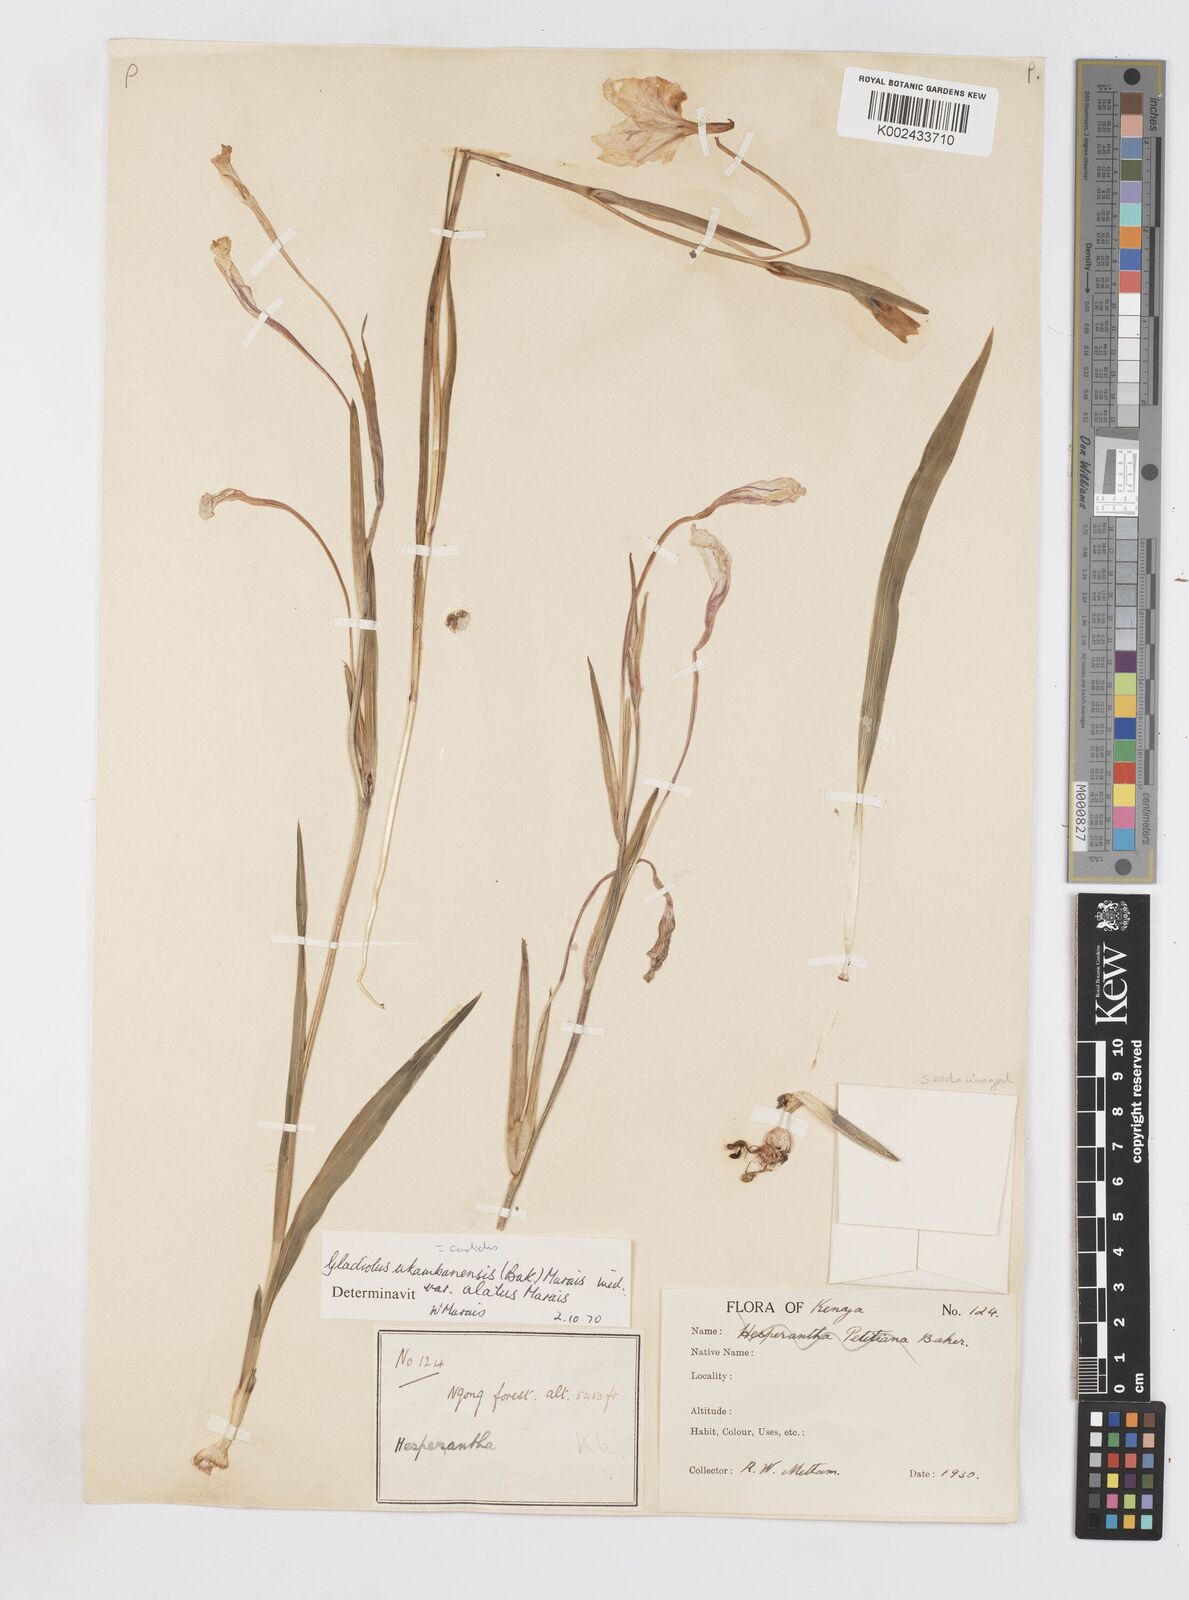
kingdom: Plantae
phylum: Tracheophyta
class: Liliopsida
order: Asparagales
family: Iridaceae
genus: Gladiolus
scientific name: Gladiolus candidus
